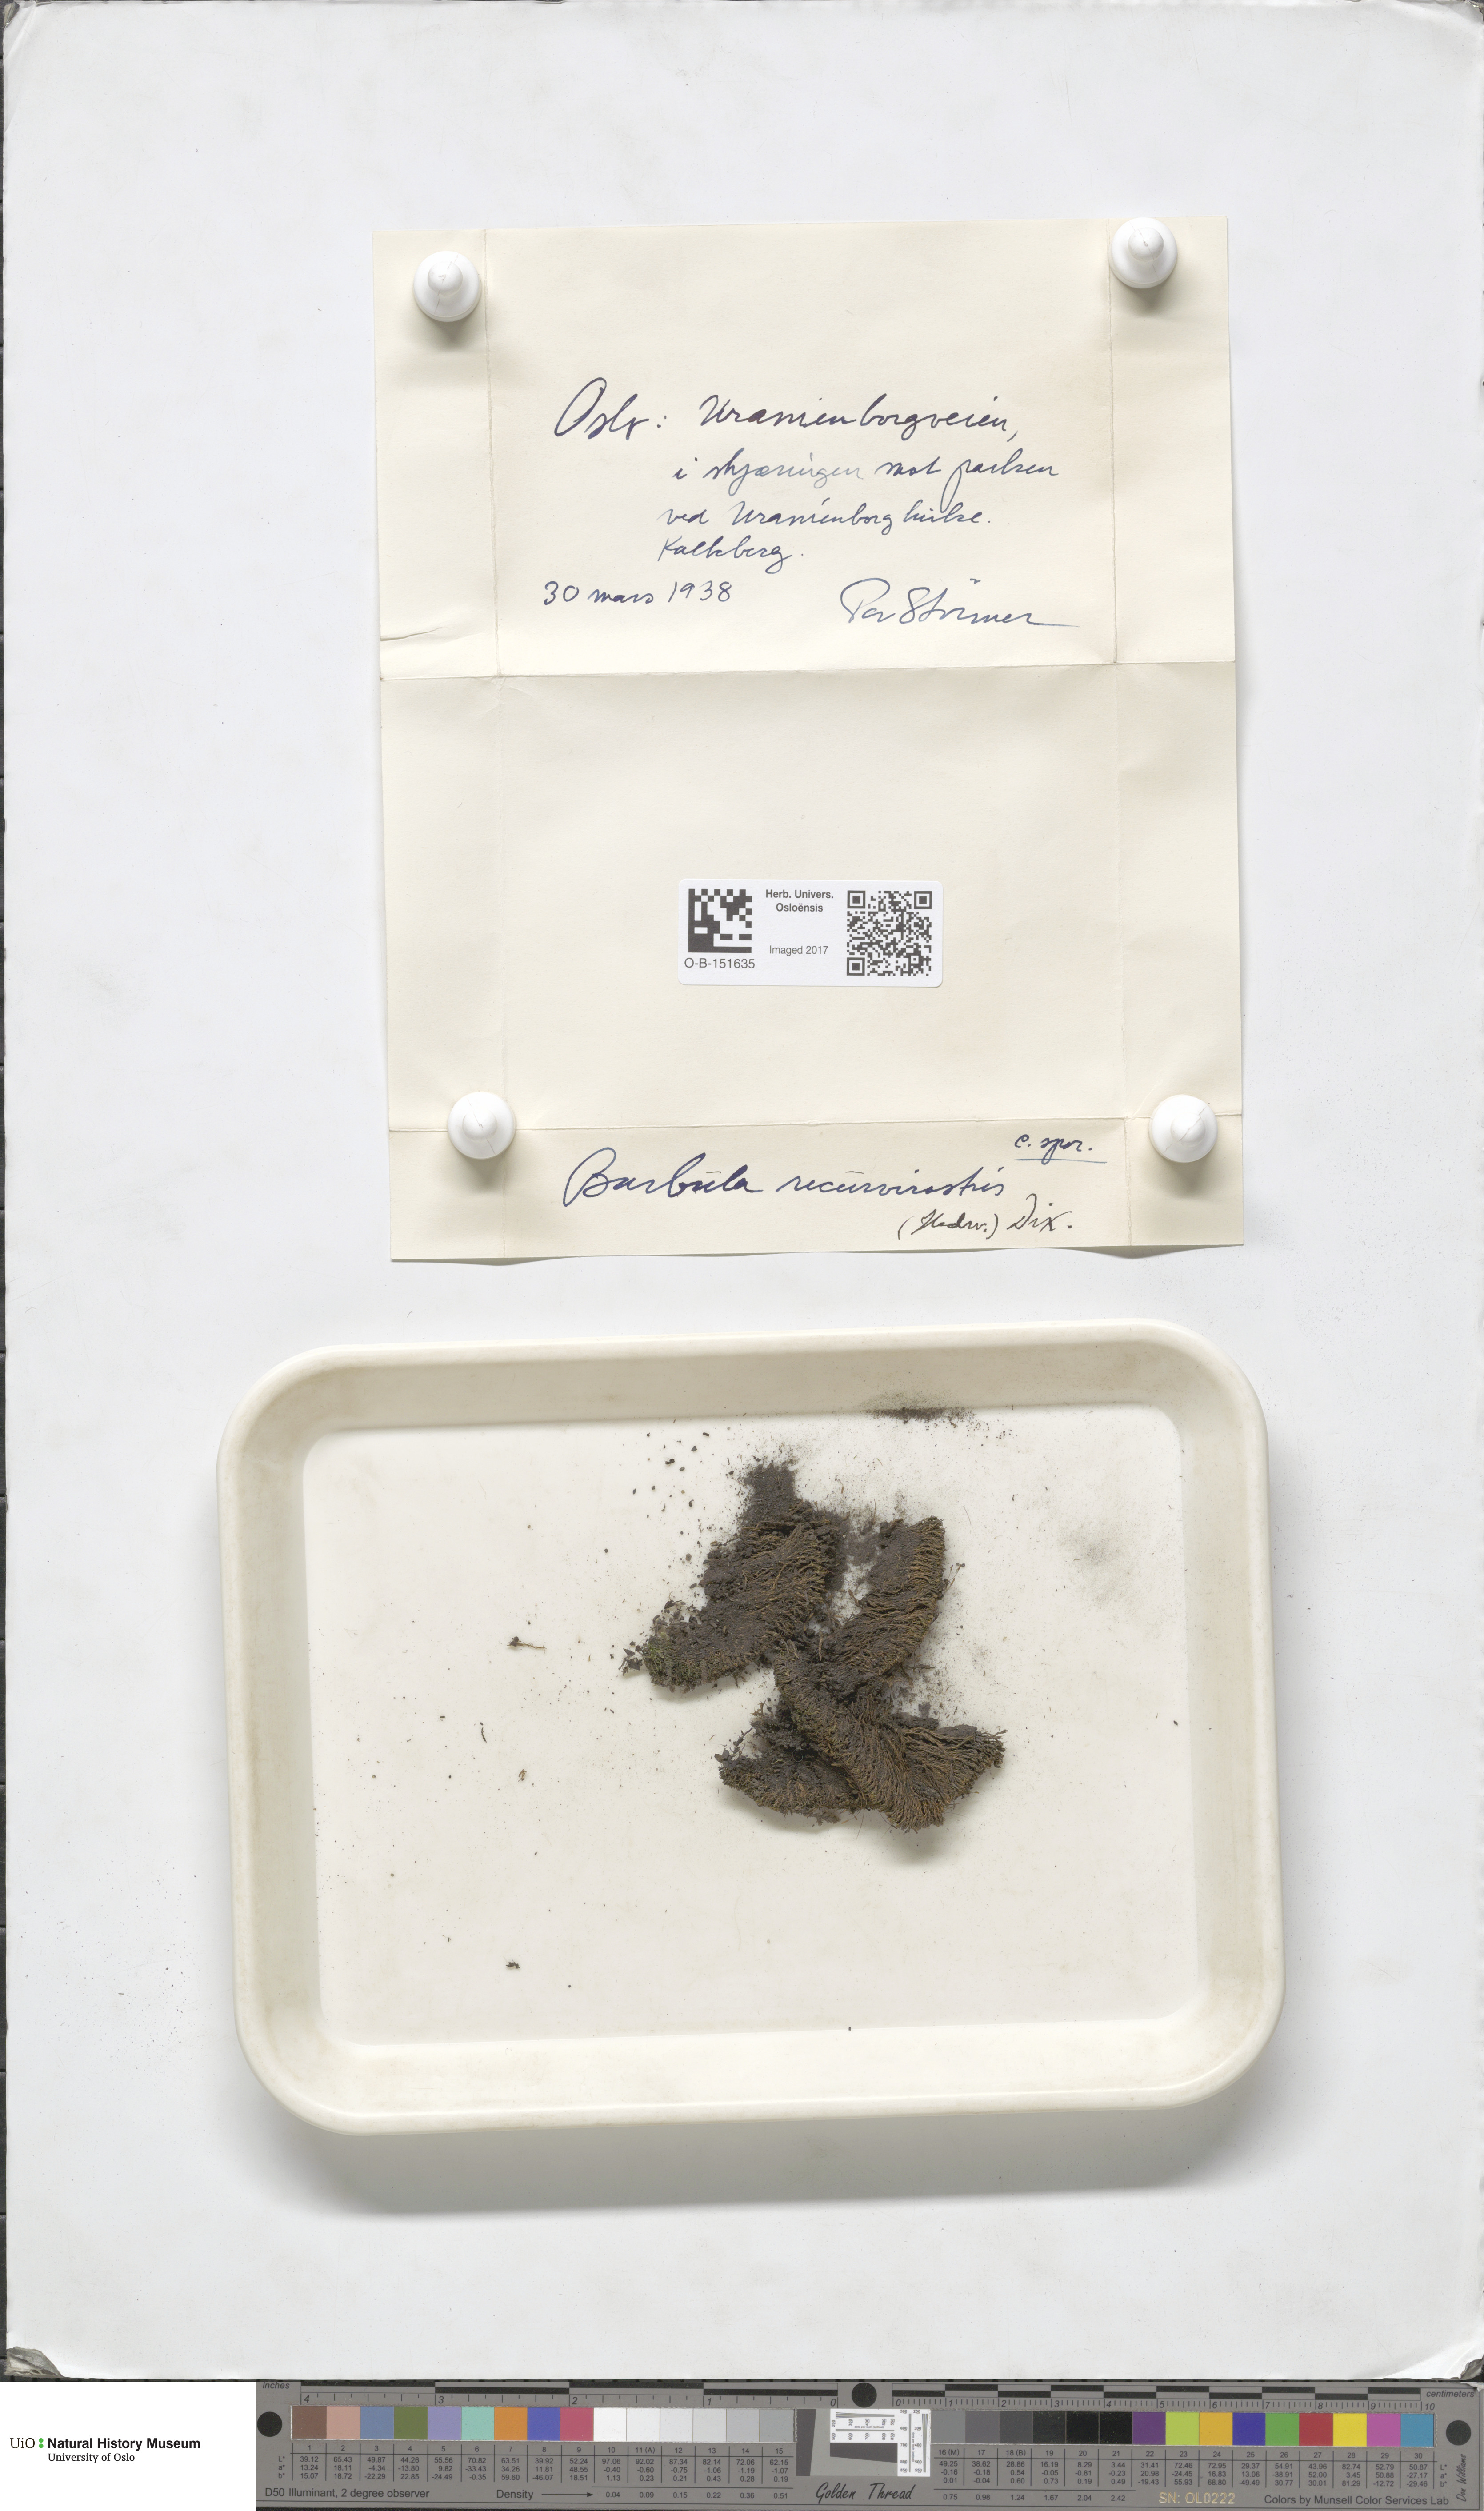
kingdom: Plantae
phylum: Bryophyta
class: Bryopsida
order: Pottiales
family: Pottiaceae
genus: Bryoerythrophyllum
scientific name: Bryoerythrophyllum recurvirostrum
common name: Red beard moss
